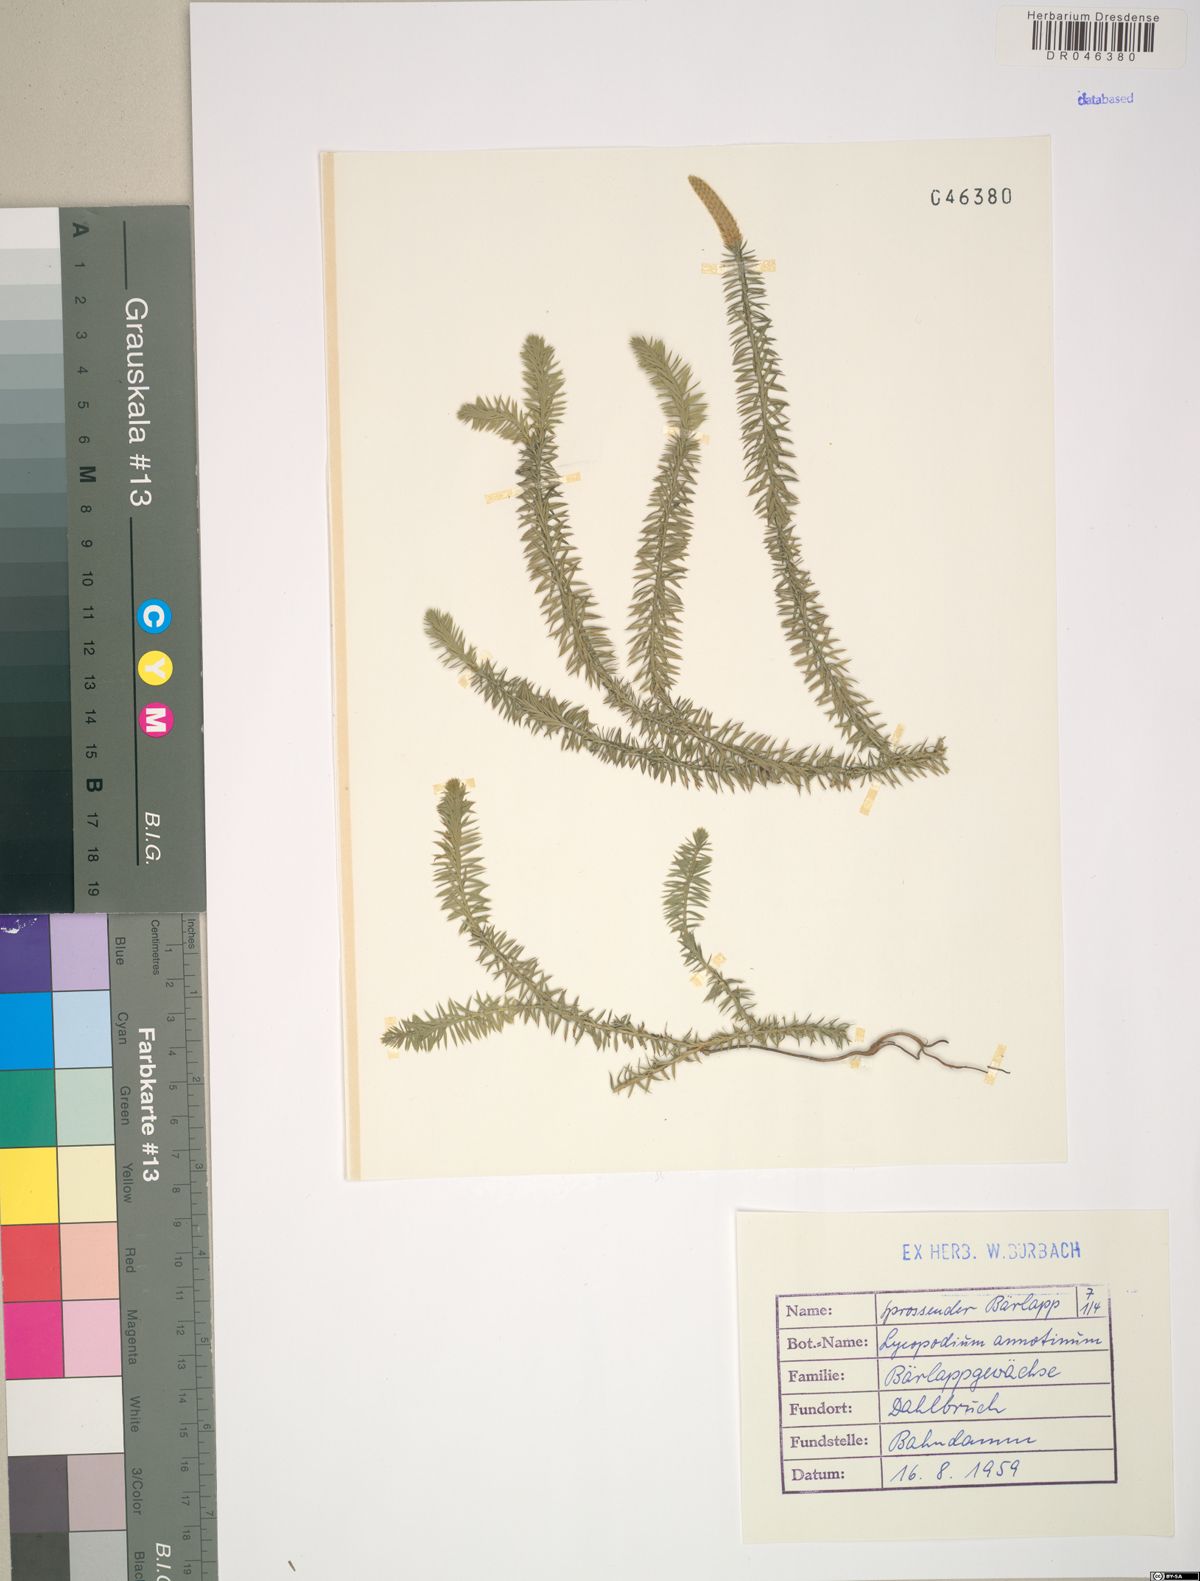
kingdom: Plantae
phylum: Tracheophyta
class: Lycopodiopsida
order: Lycopodiales
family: Lycopodiaceae
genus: Spinulum
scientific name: Spinulum annotinum
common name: Interrupted club-moss
